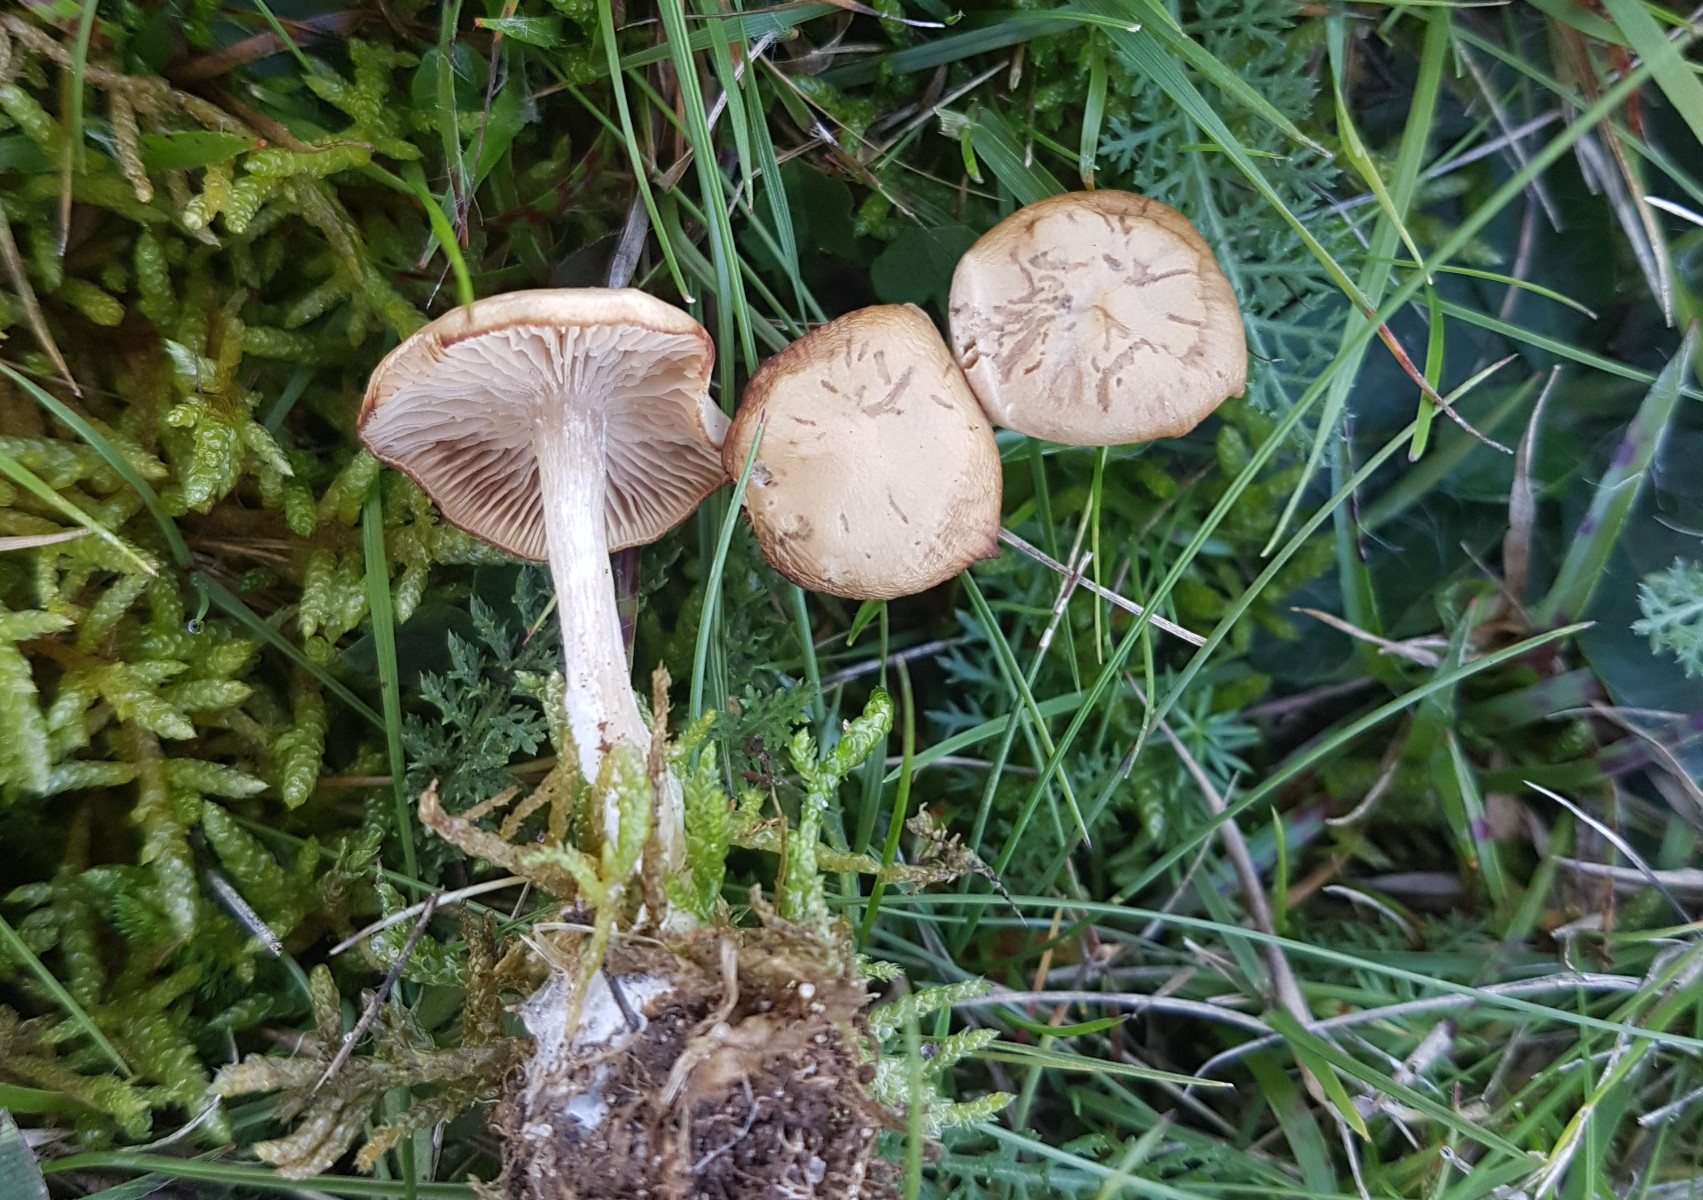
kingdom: Fungi
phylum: Basidiomycota
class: Agaricomycetes
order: Agaricales
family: Tricholomataceae
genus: Clitocybe
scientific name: Clitocybe rivulosa
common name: eng-tragthat
